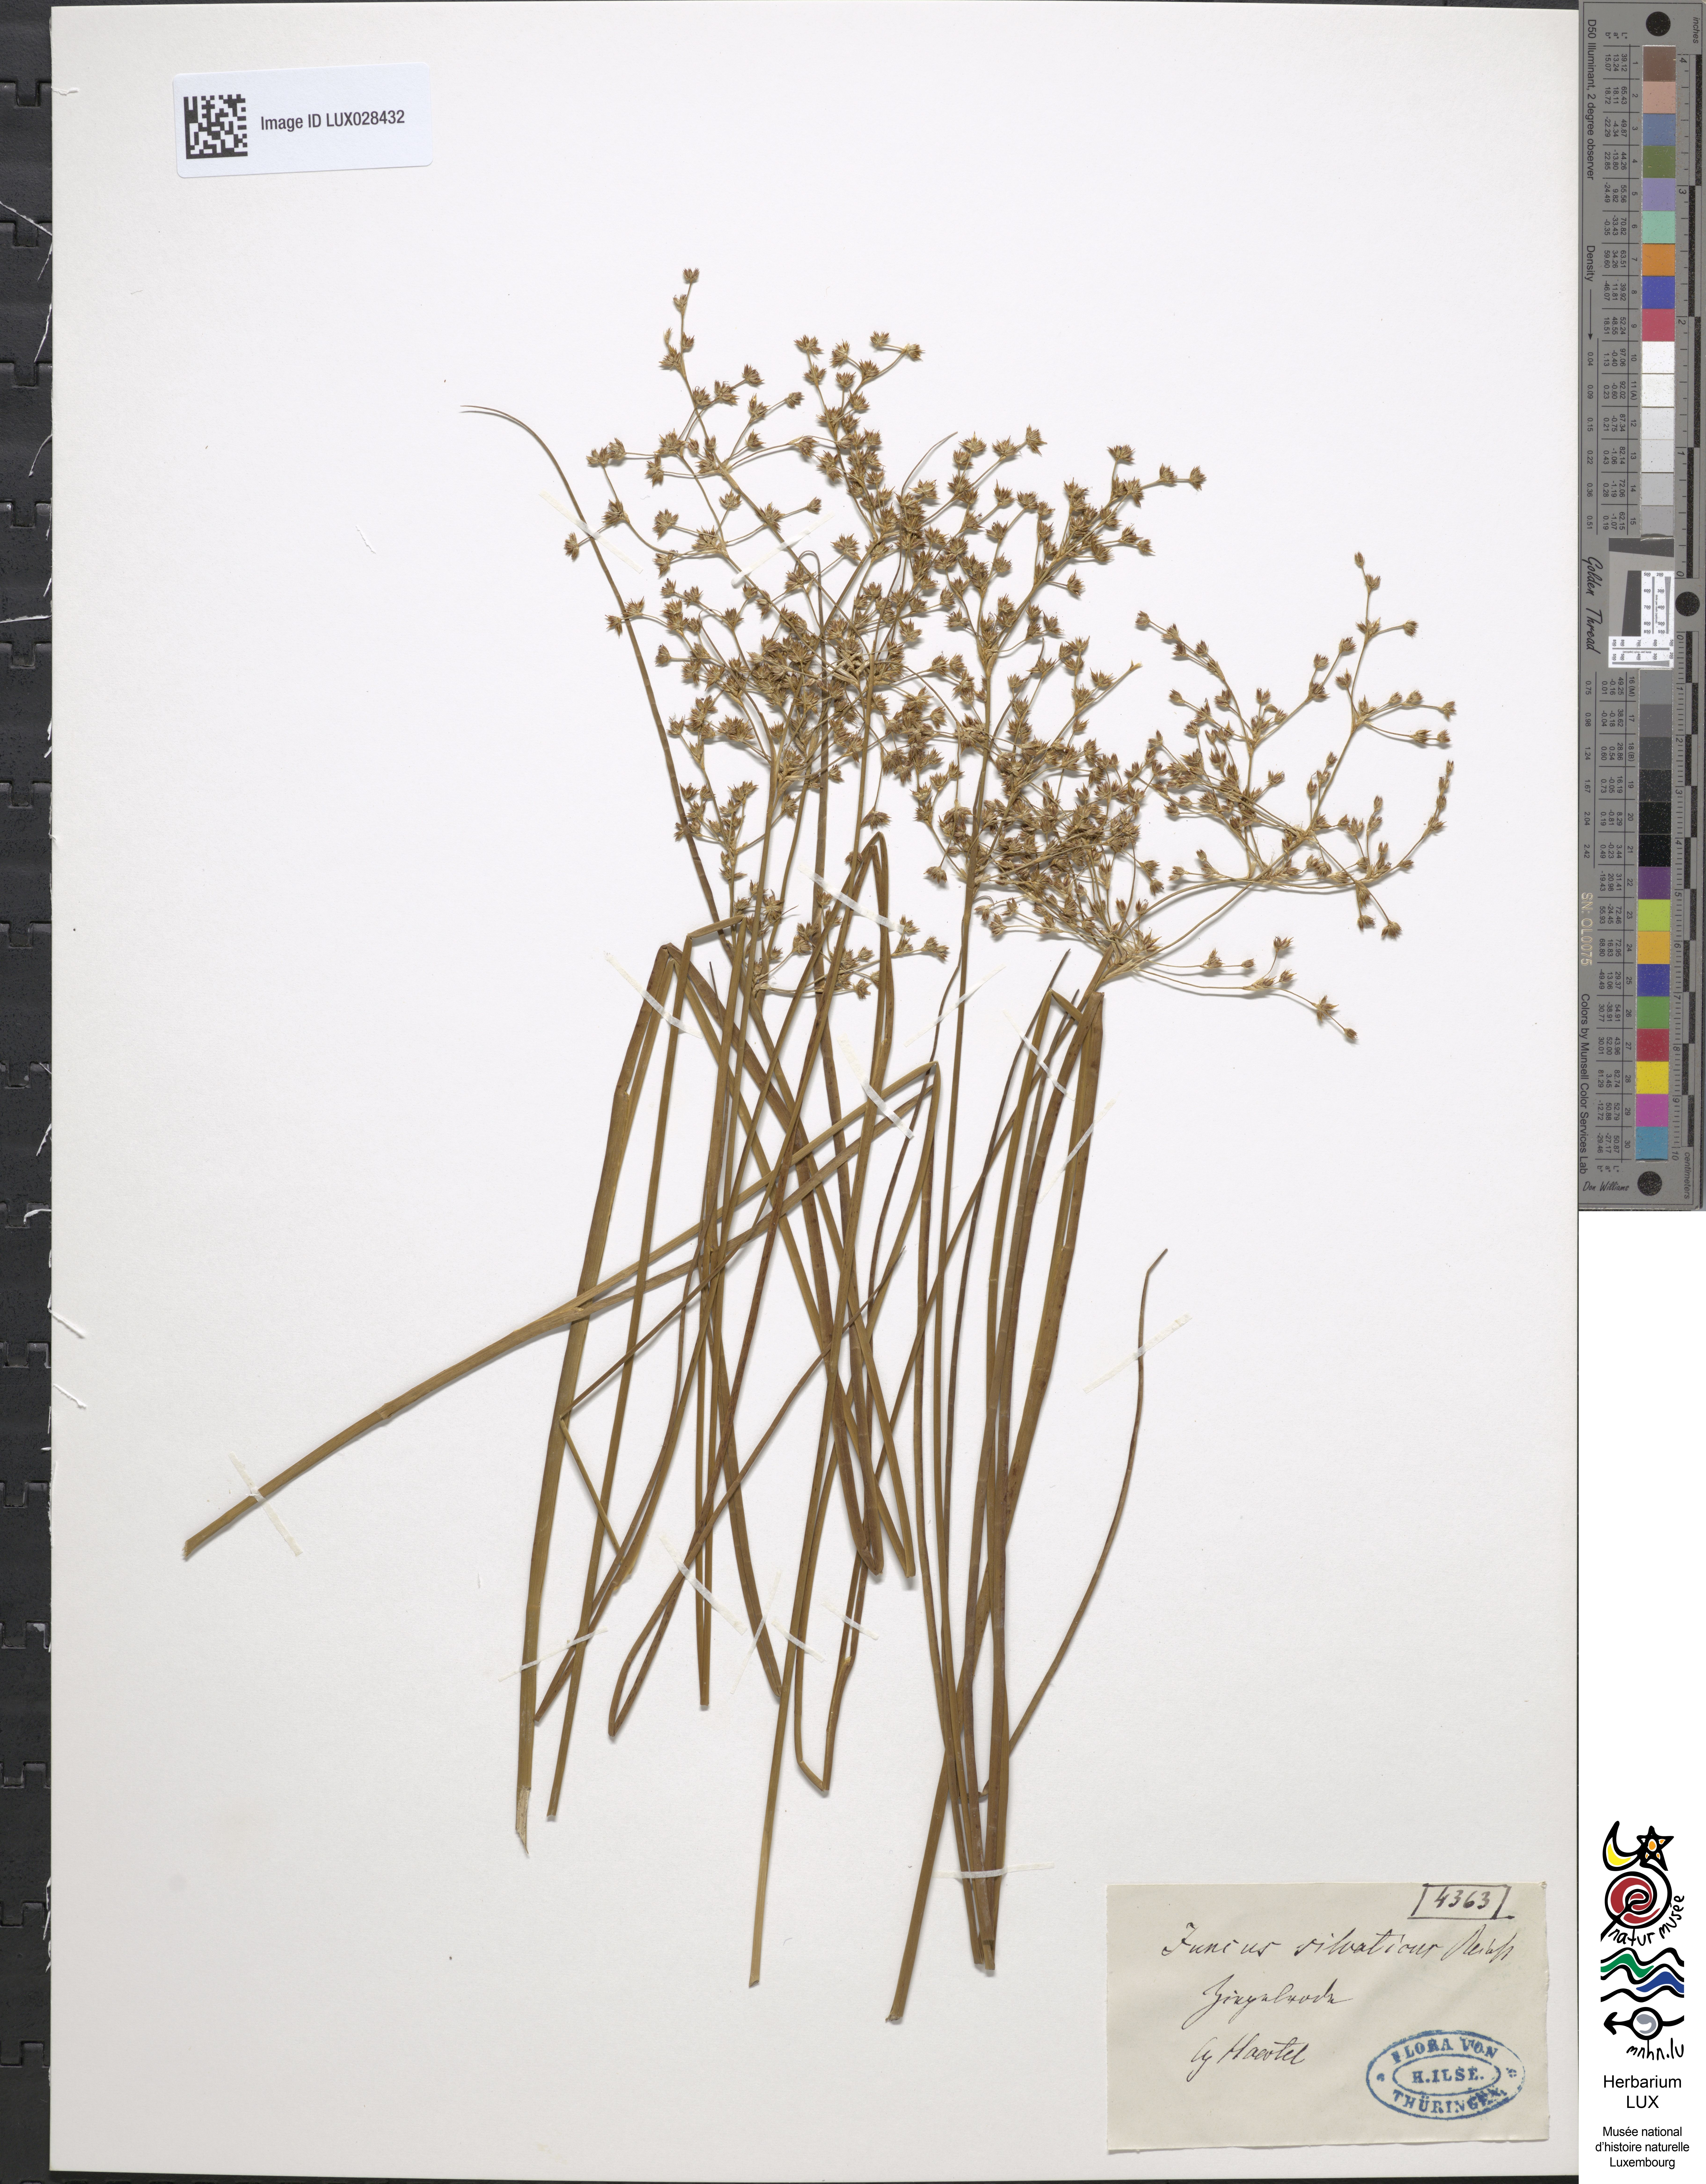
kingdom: Plantae
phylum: Tracheophyta
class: Liliopsida
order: Poales
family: Juncaceae
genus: Juncus
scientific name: Juncus acutiflorus
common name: Sharp-flowered rush
